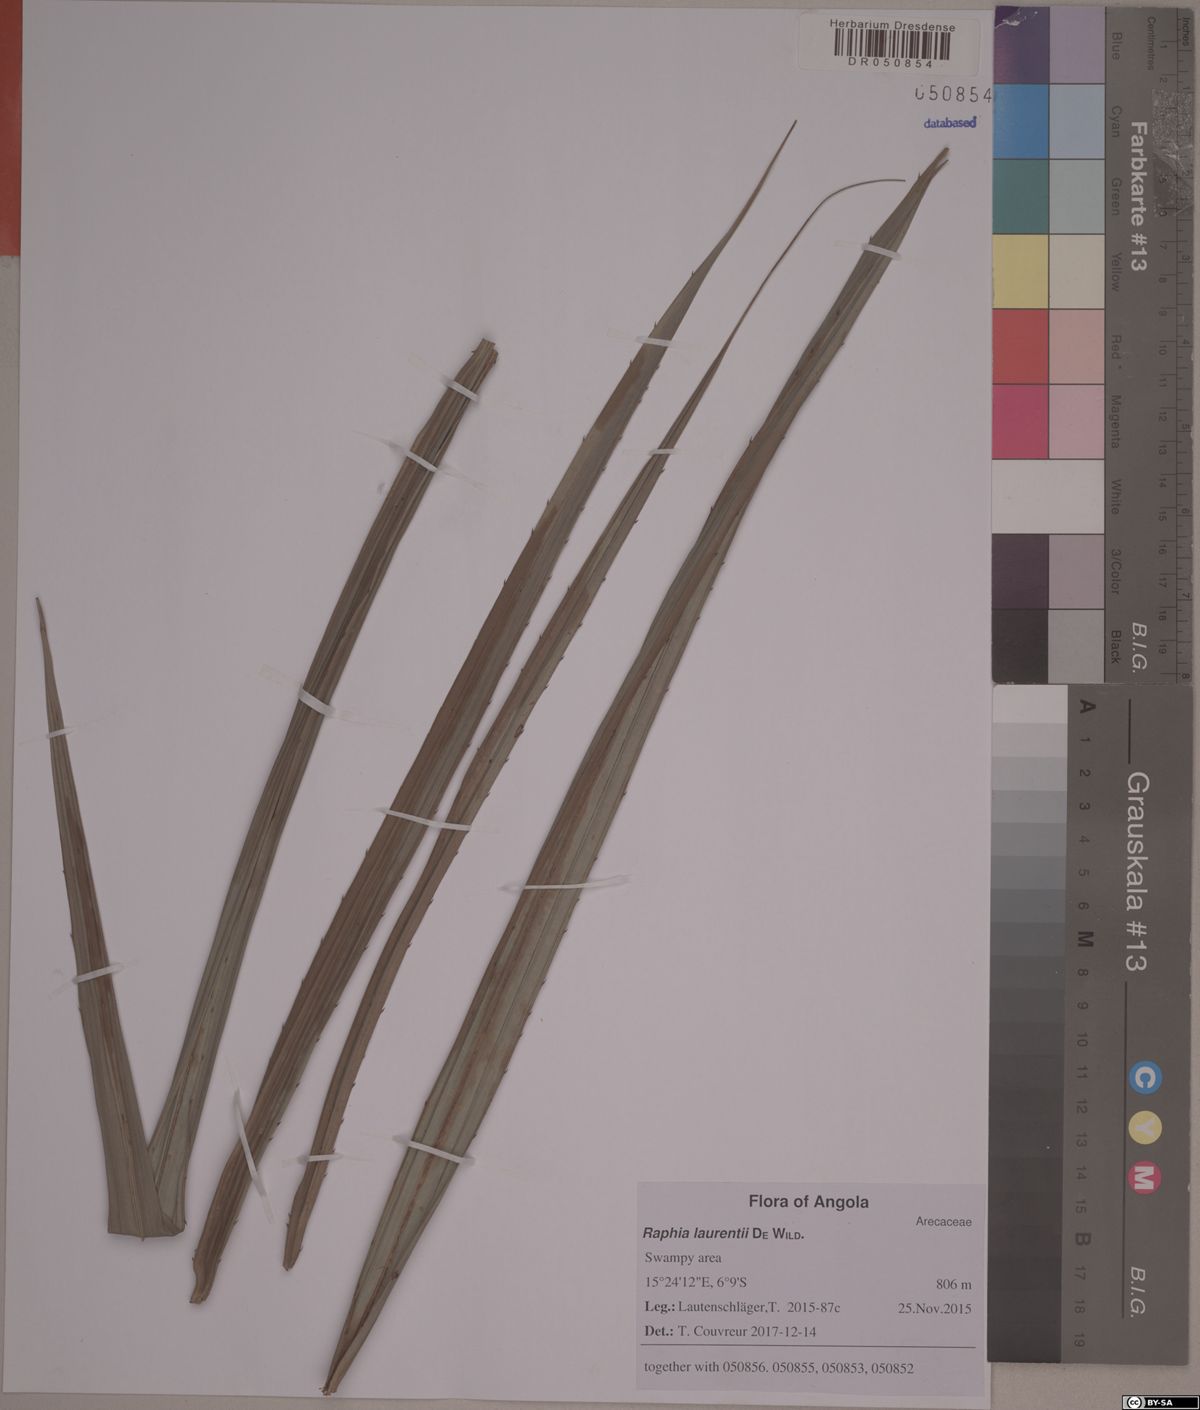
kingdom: Plantae
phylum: Tracheophyta
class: Liliopsida
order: Arecales
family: Arecaceae
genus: Raphia
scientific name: Raphia laurentii
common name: Raphia palm
